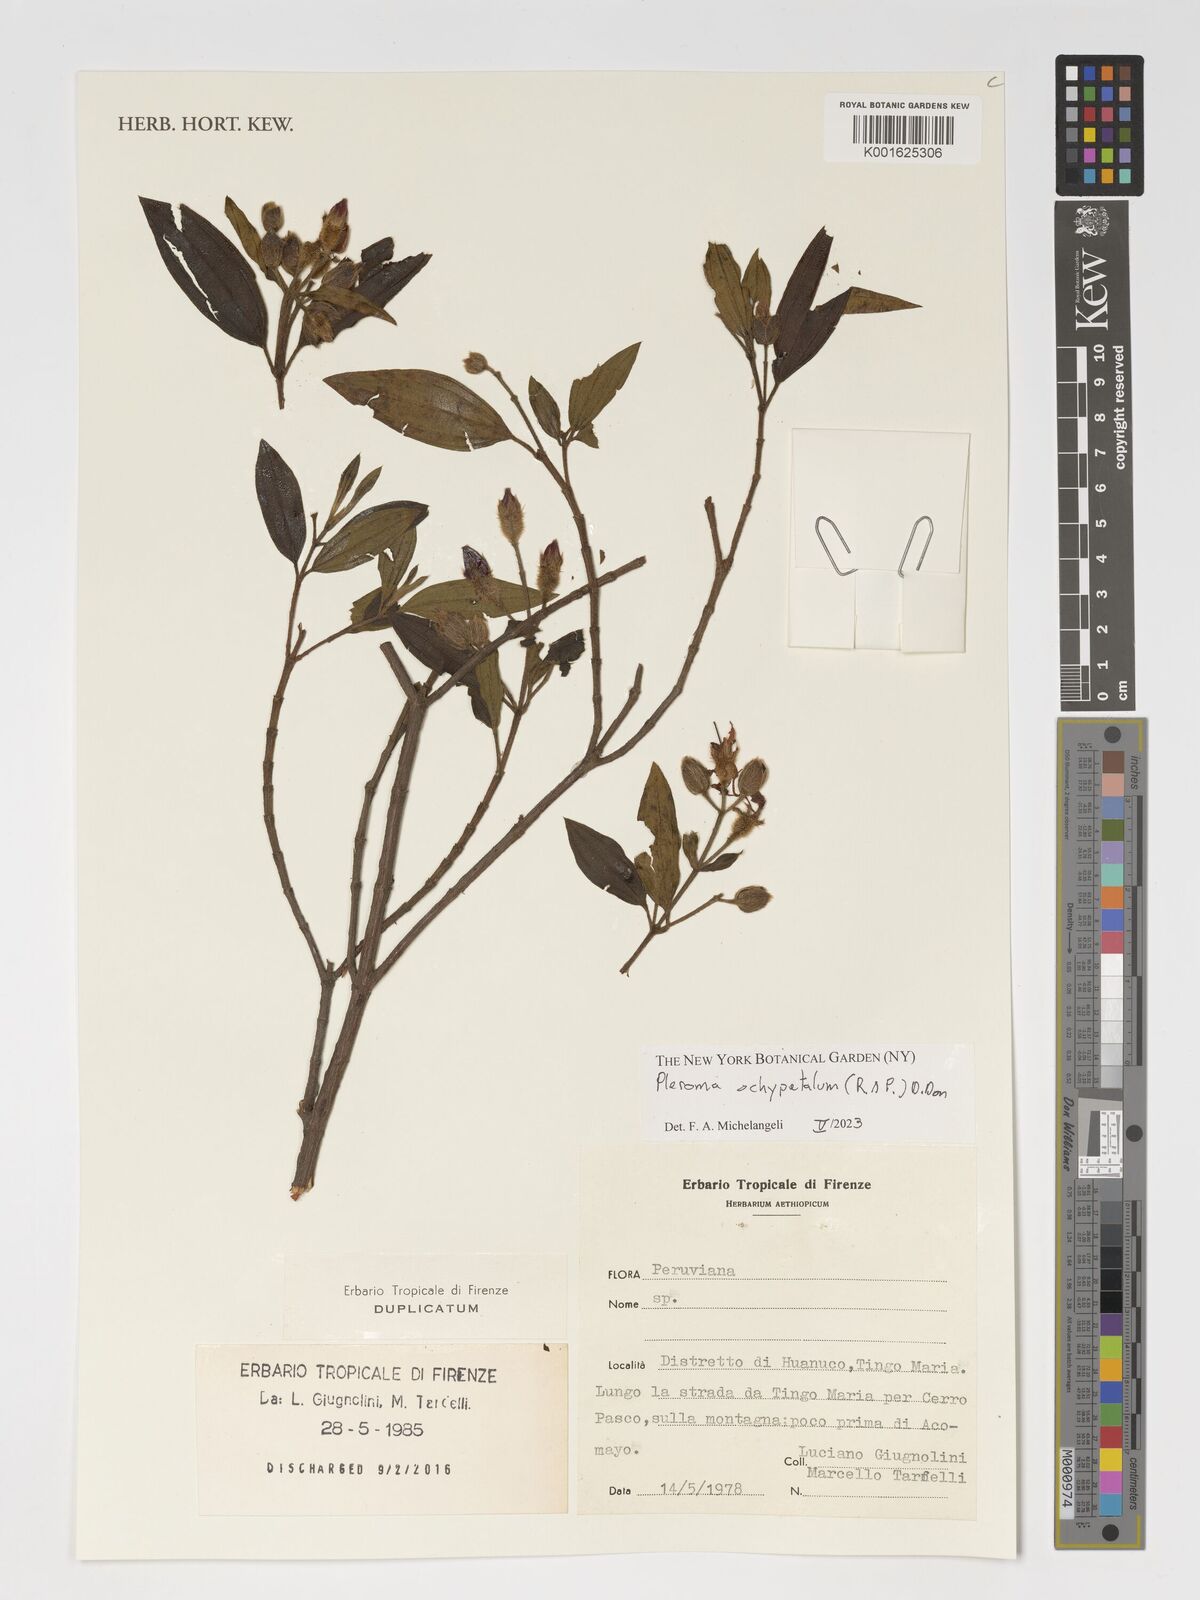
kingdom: Plantae
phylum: Tracheophyta
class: Magnoliopsida
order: Myrtales
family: Melastomataceae
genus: Pleroma
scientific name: Pleroma ochypetalum
